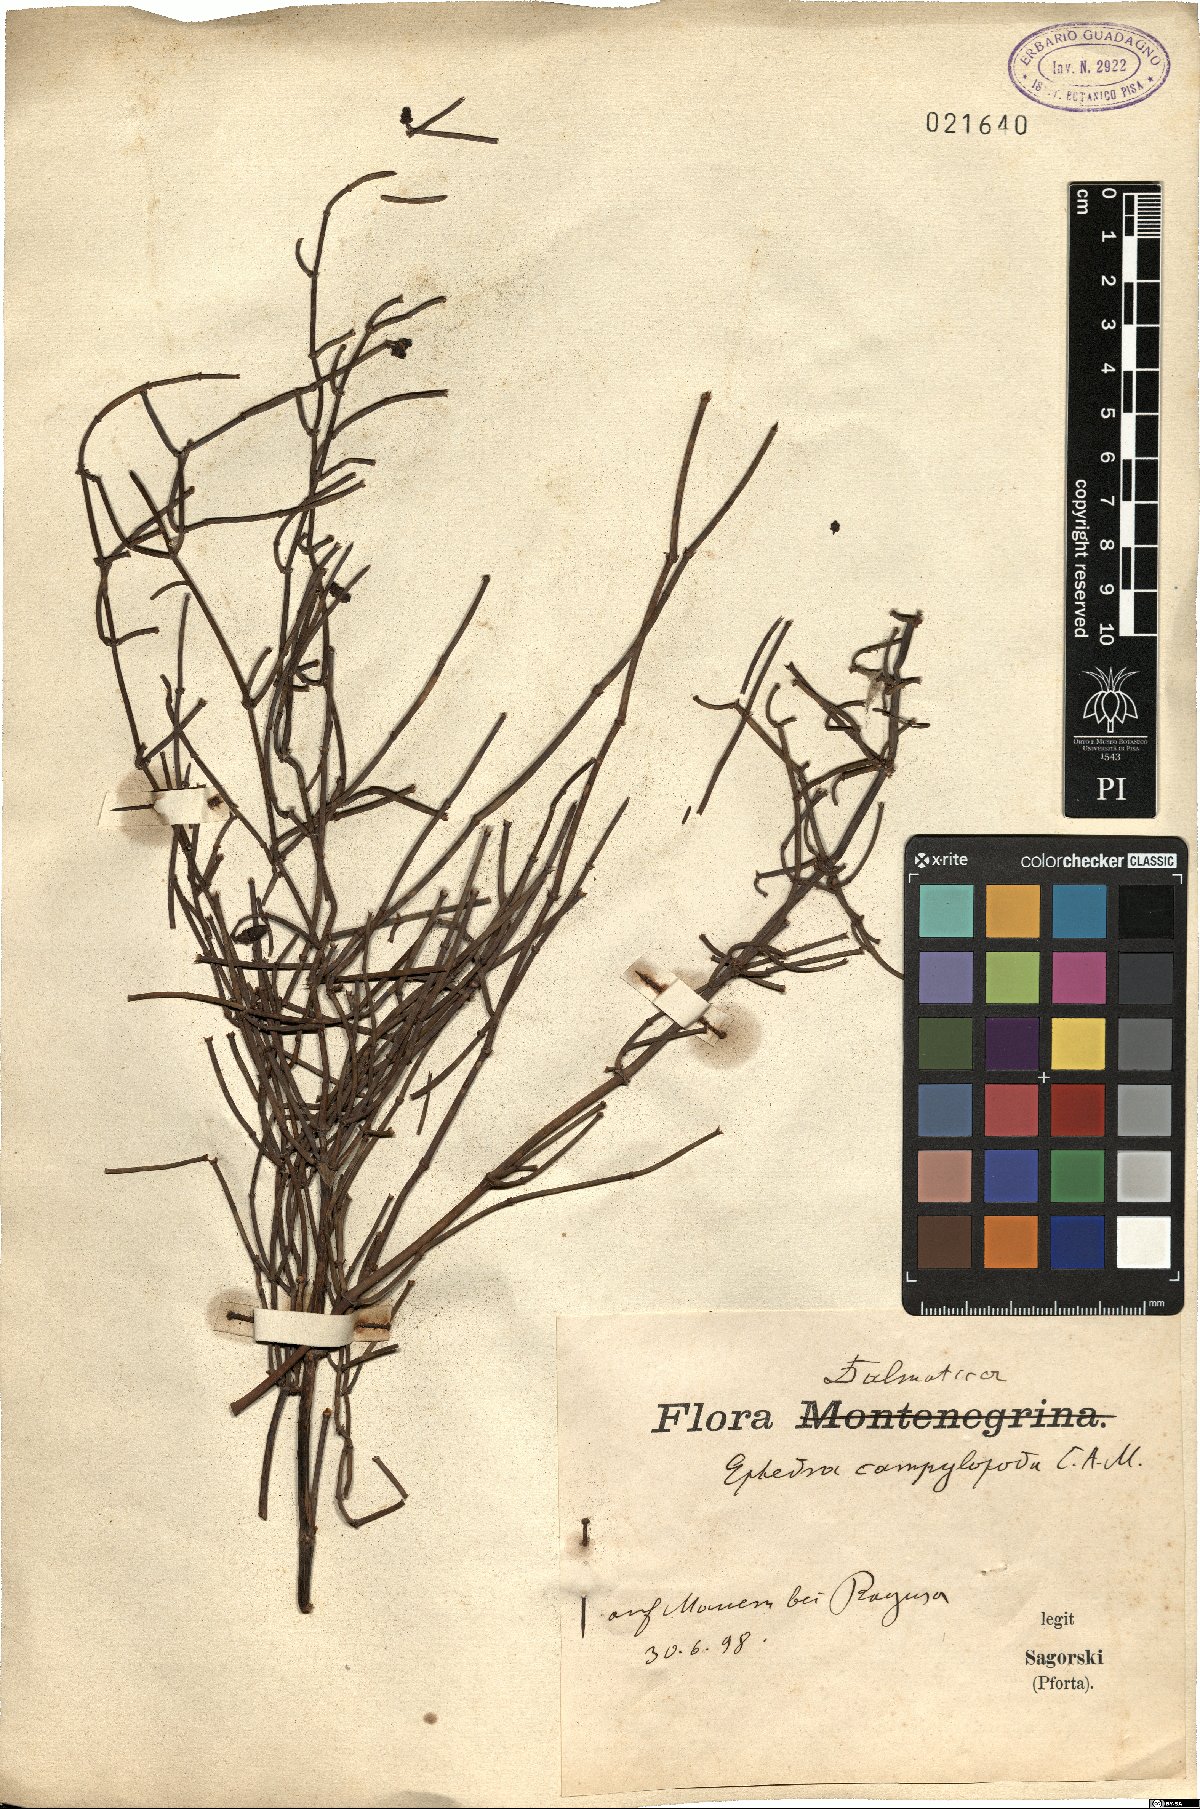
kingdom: Plantae
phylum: Tracheophyta
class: Gnetopsida
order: Ephedrales
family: Ephedraceae
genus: Ephedra
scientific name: Ephedra foeminea
